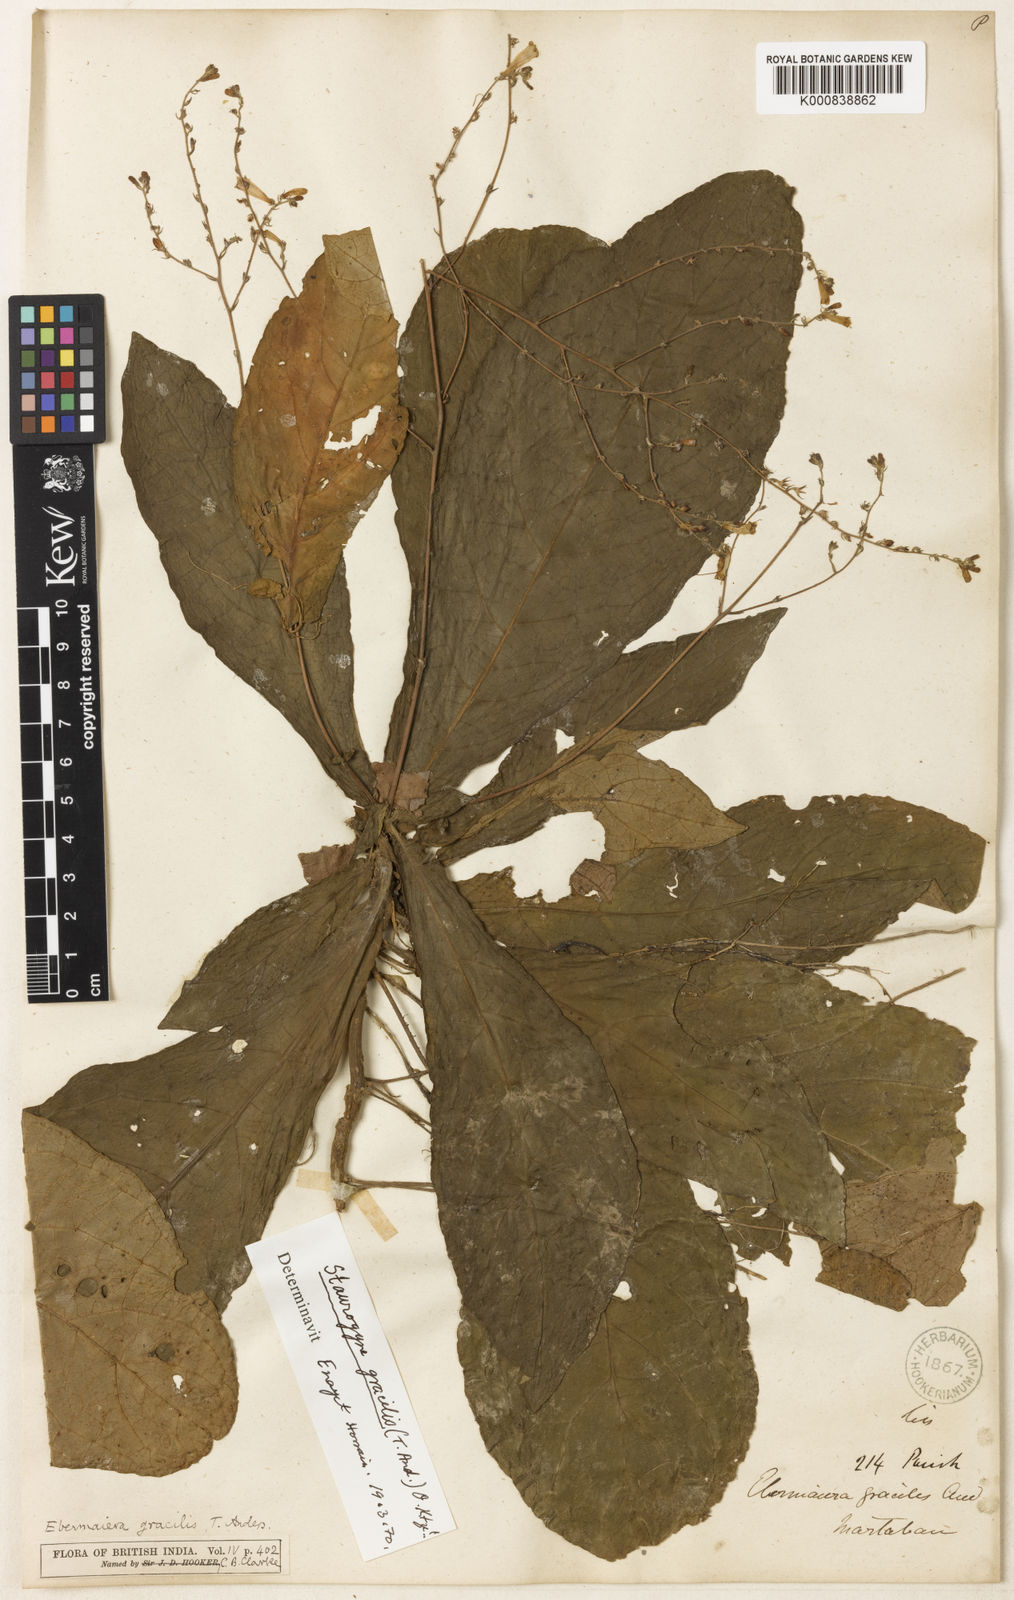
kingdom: Plantae
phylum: Tracheophyta
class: Magnoliopsida
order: Lamiales
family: Acanthaceae
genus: Staurogyne
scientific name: Staurogyne gracilis
